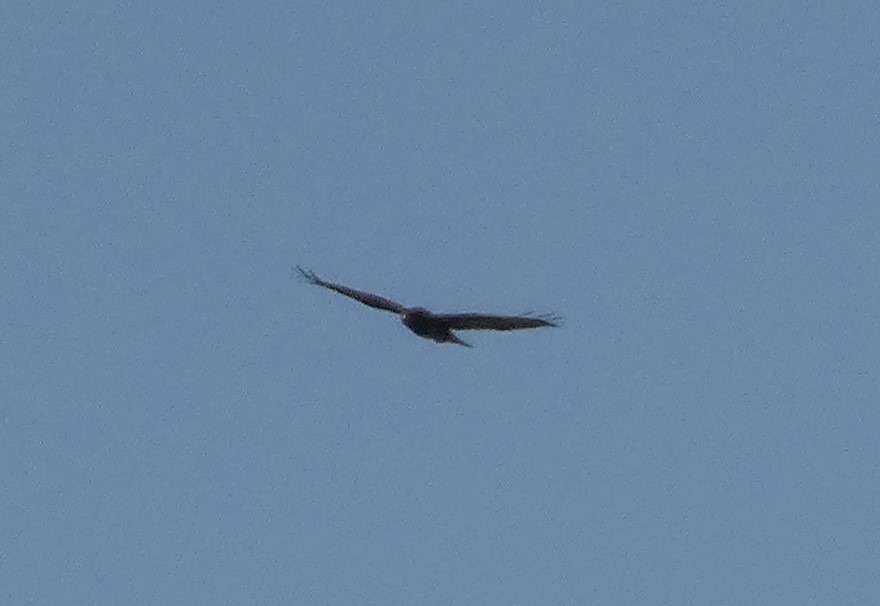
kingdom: Animalia
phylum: Chordata
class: Aves
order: Accipitriformes
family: Accipitridae
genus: Buteo
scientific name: Buteo buteo
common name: Musvåge
